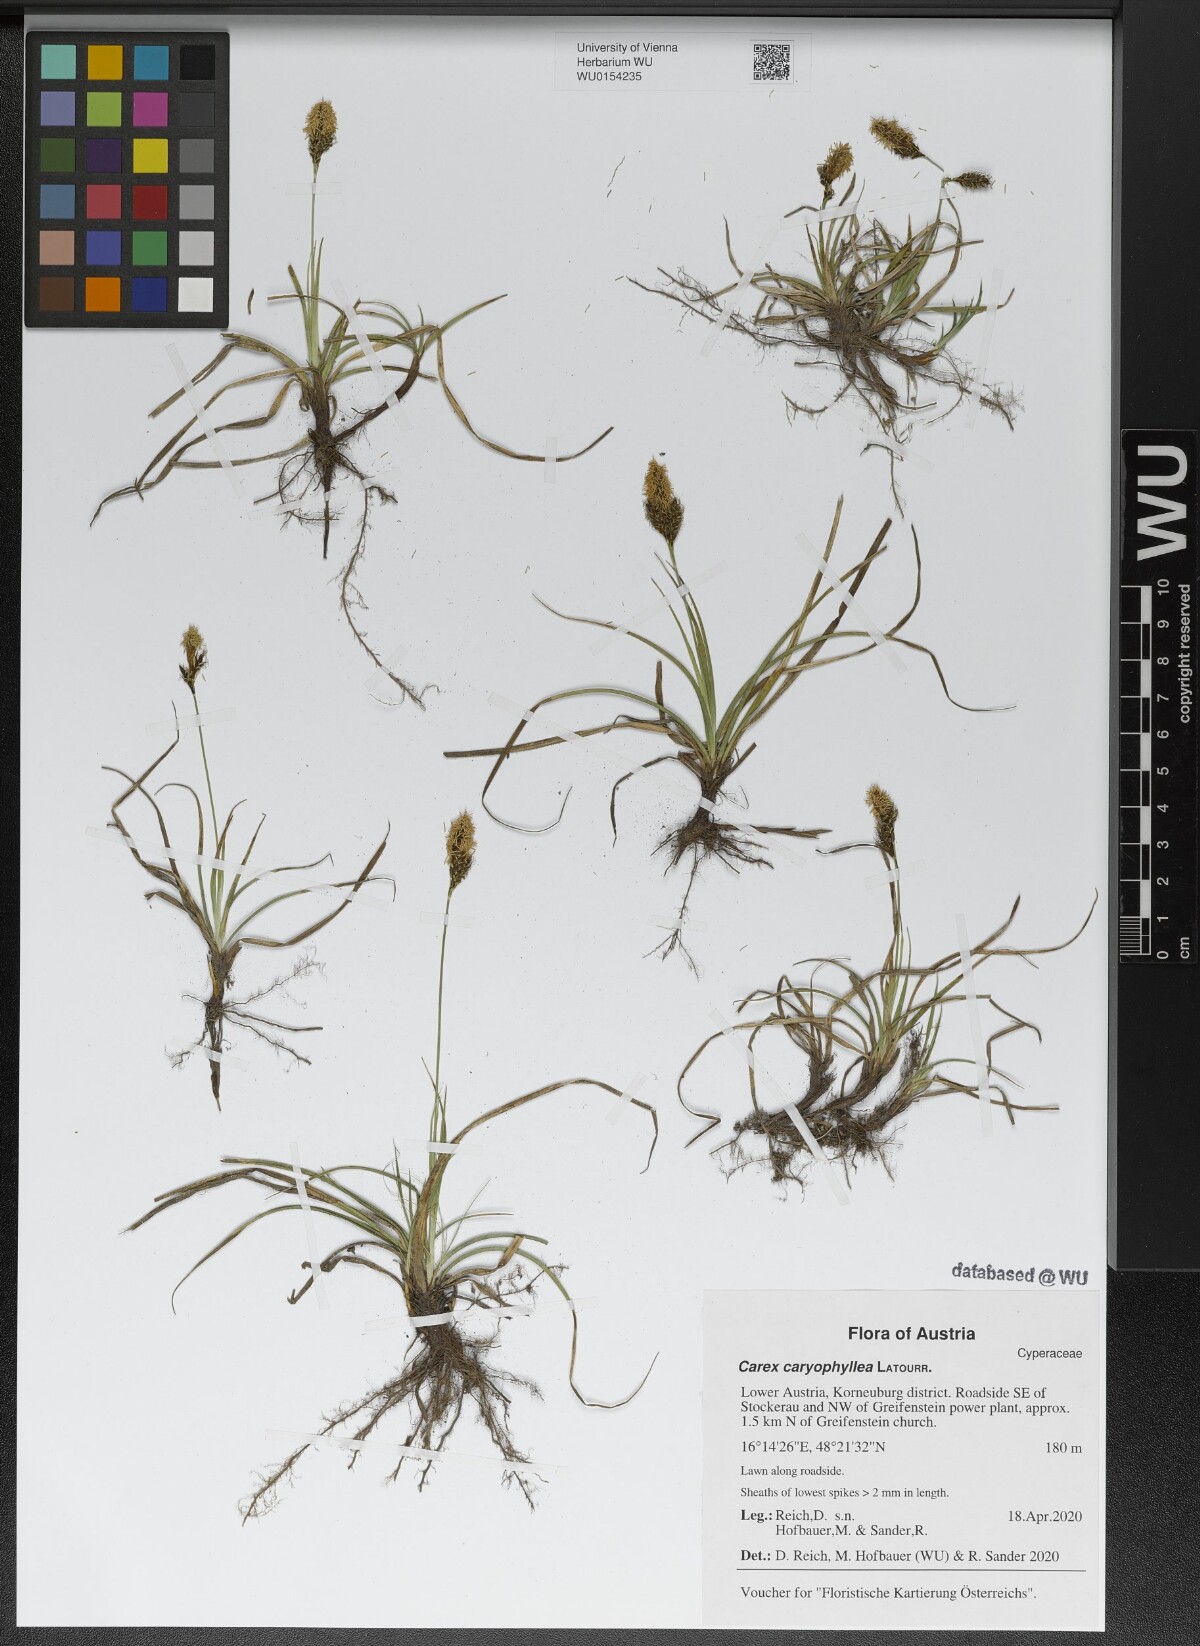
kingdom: Plantae
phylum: Tracheophyta
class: Liliopsida
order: Poales
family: Cyperaceae
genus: Carex
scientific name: Carex caryophyllea
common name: Spring sedge
